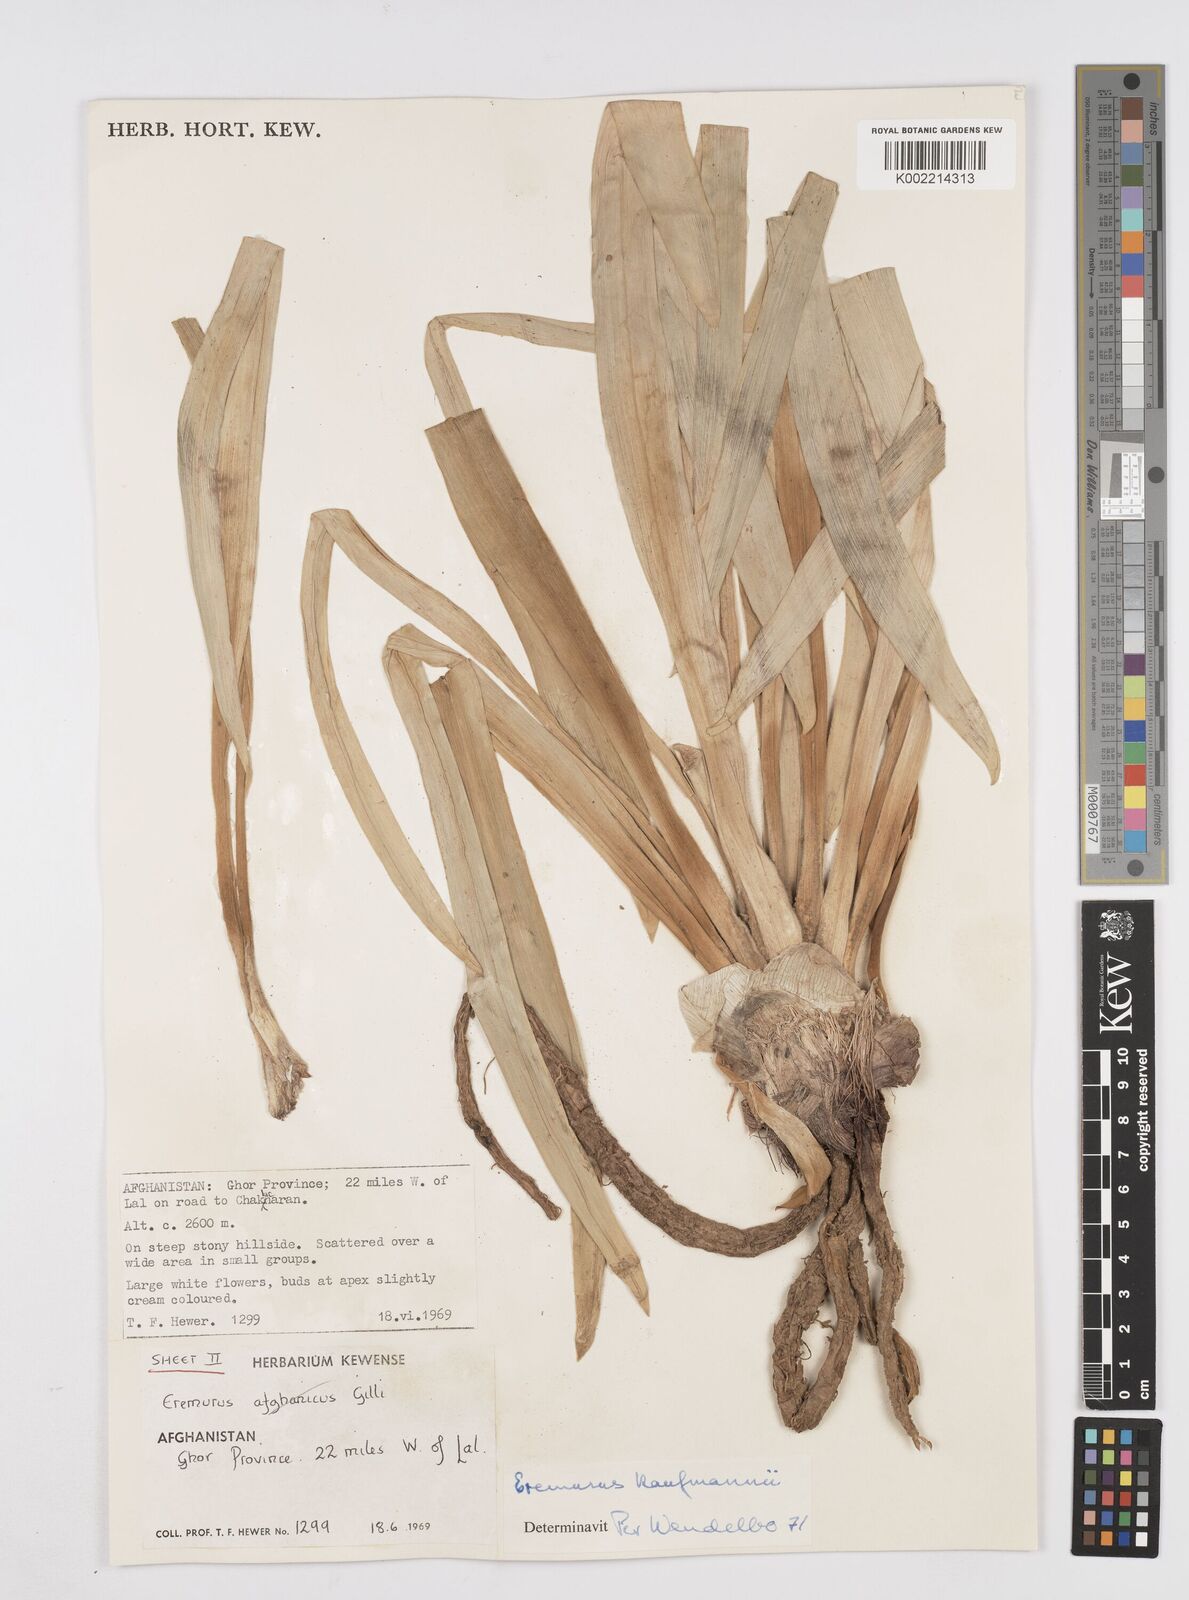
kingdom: Plantae
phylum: Tracheophyta
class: Liliopsida
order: Asparagales
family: Asphodelaceae
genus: Eremurus
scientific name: Eremurus kaufmannii
